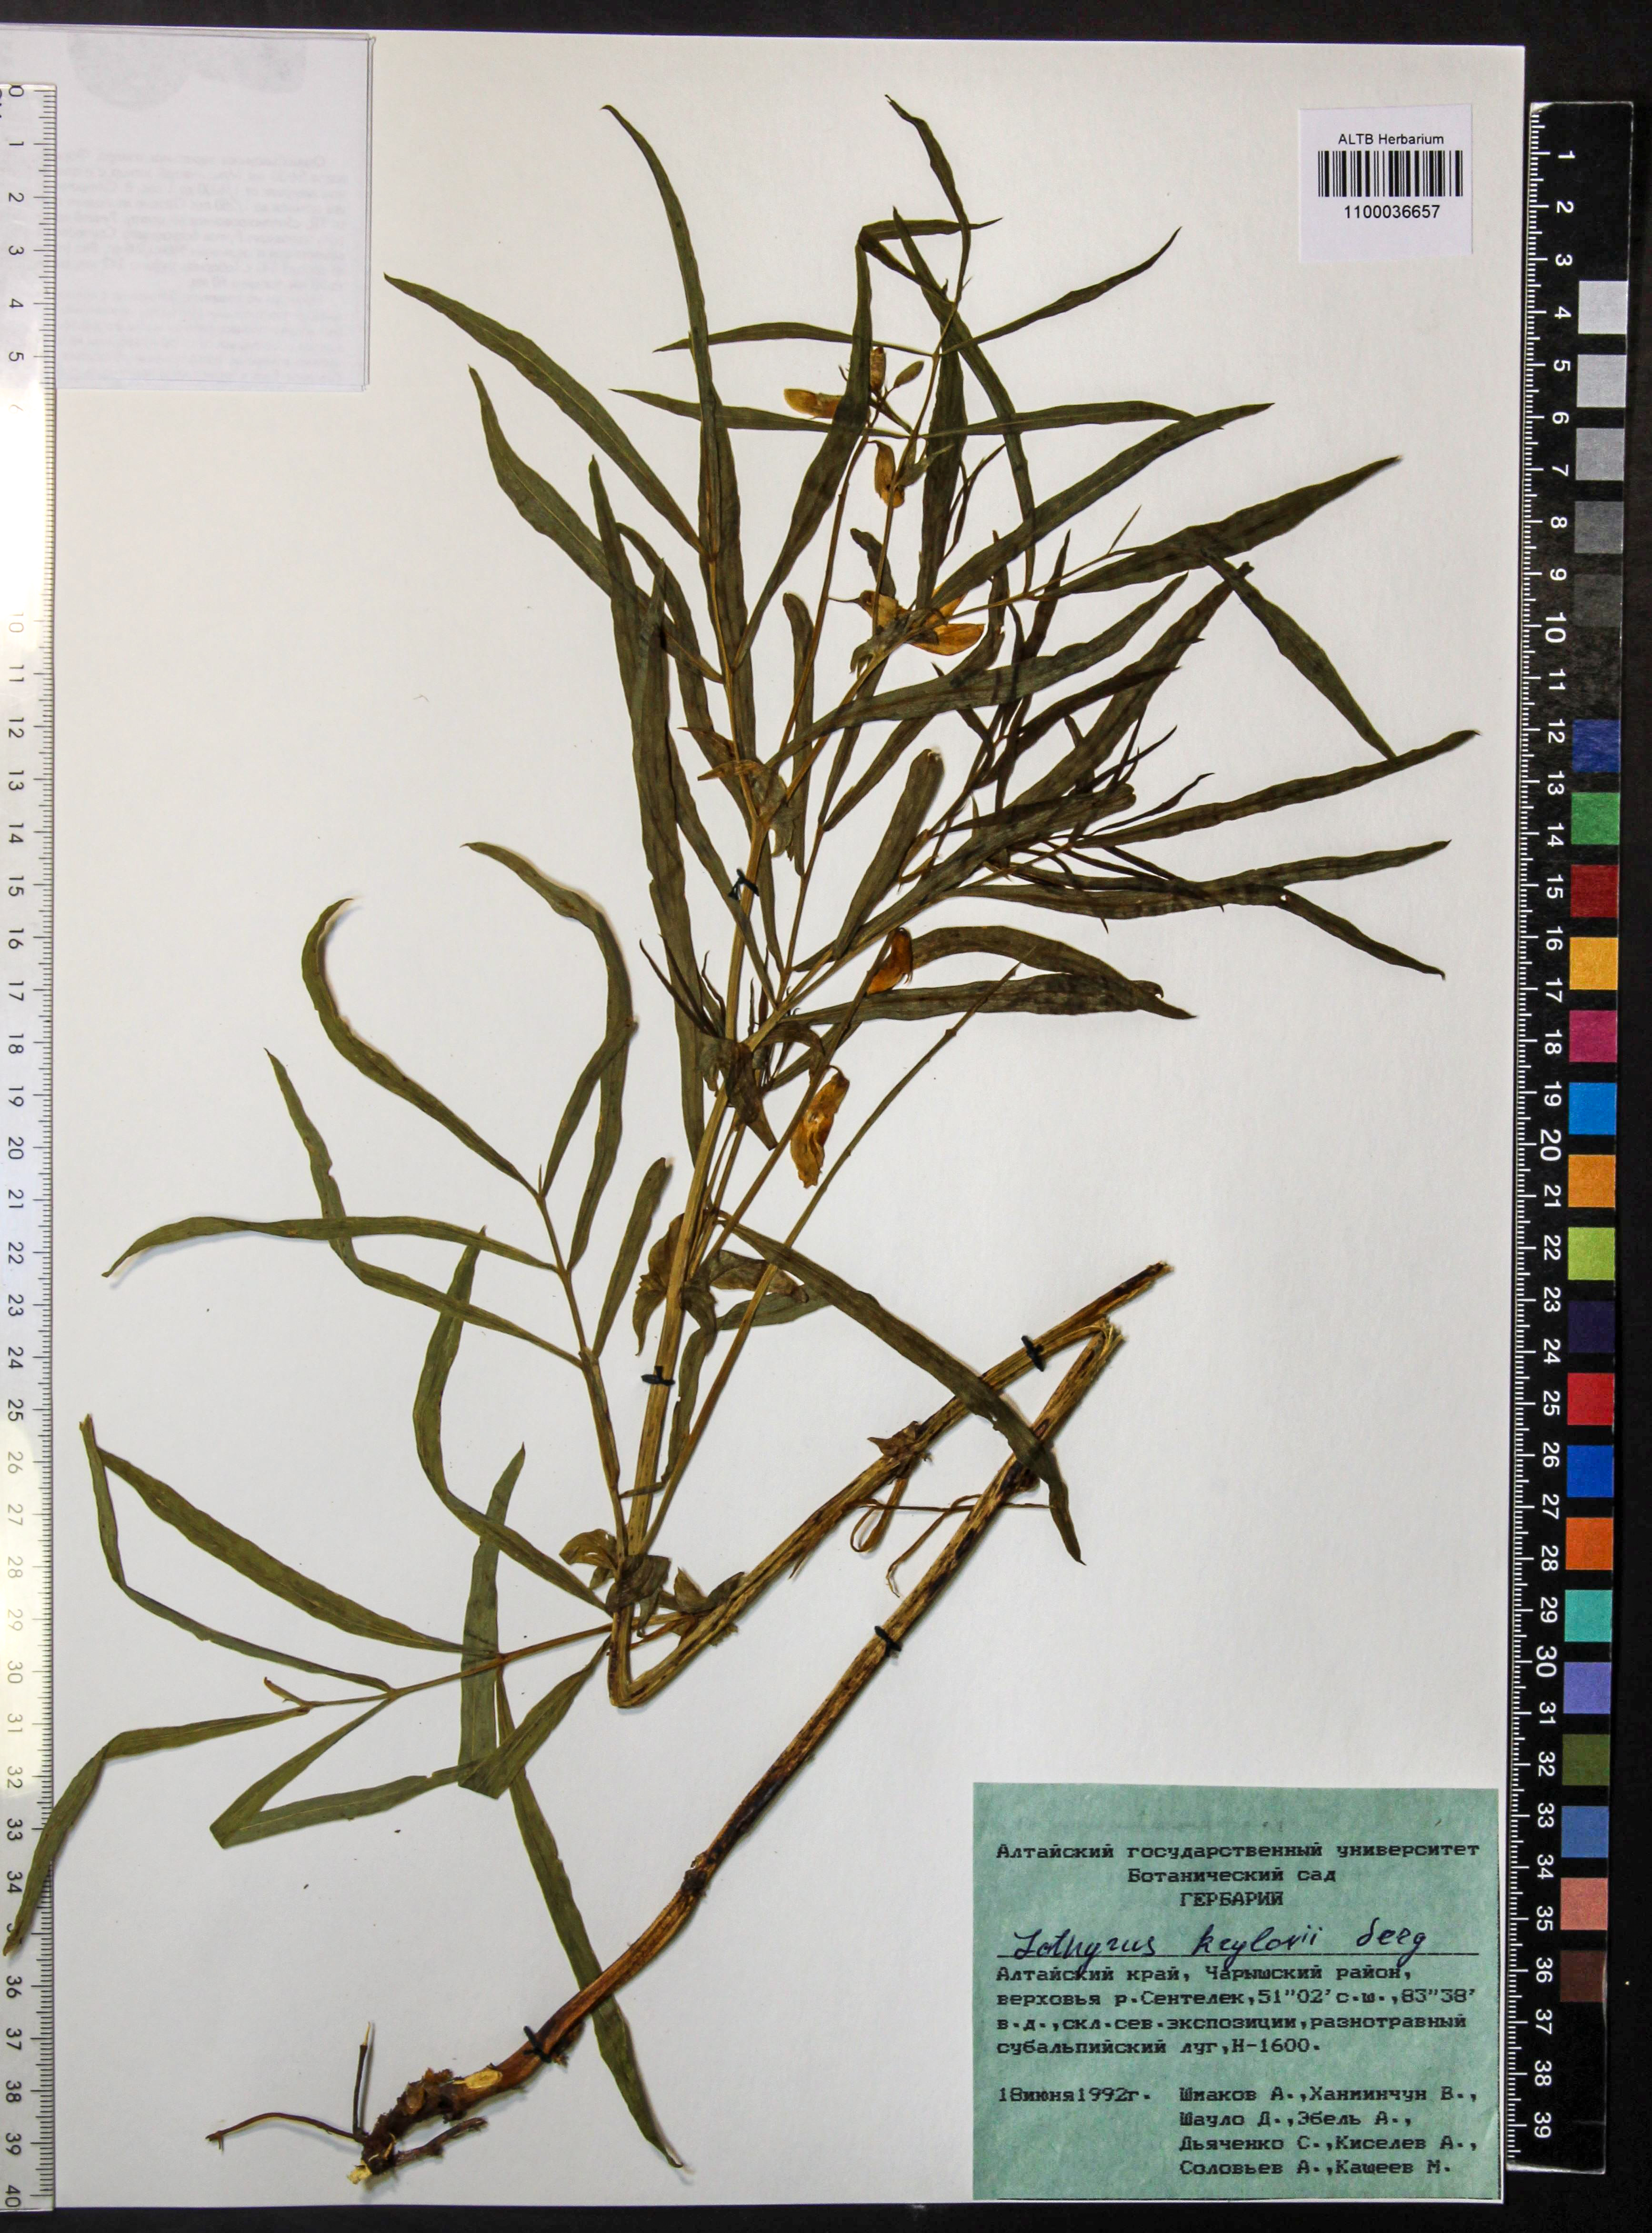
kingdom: Plantae
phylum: Tracheophyta
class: Magnoliopsida
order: Fabales
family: Fabaceae
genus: Lathyrus
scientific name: Lathyrus krylovii
